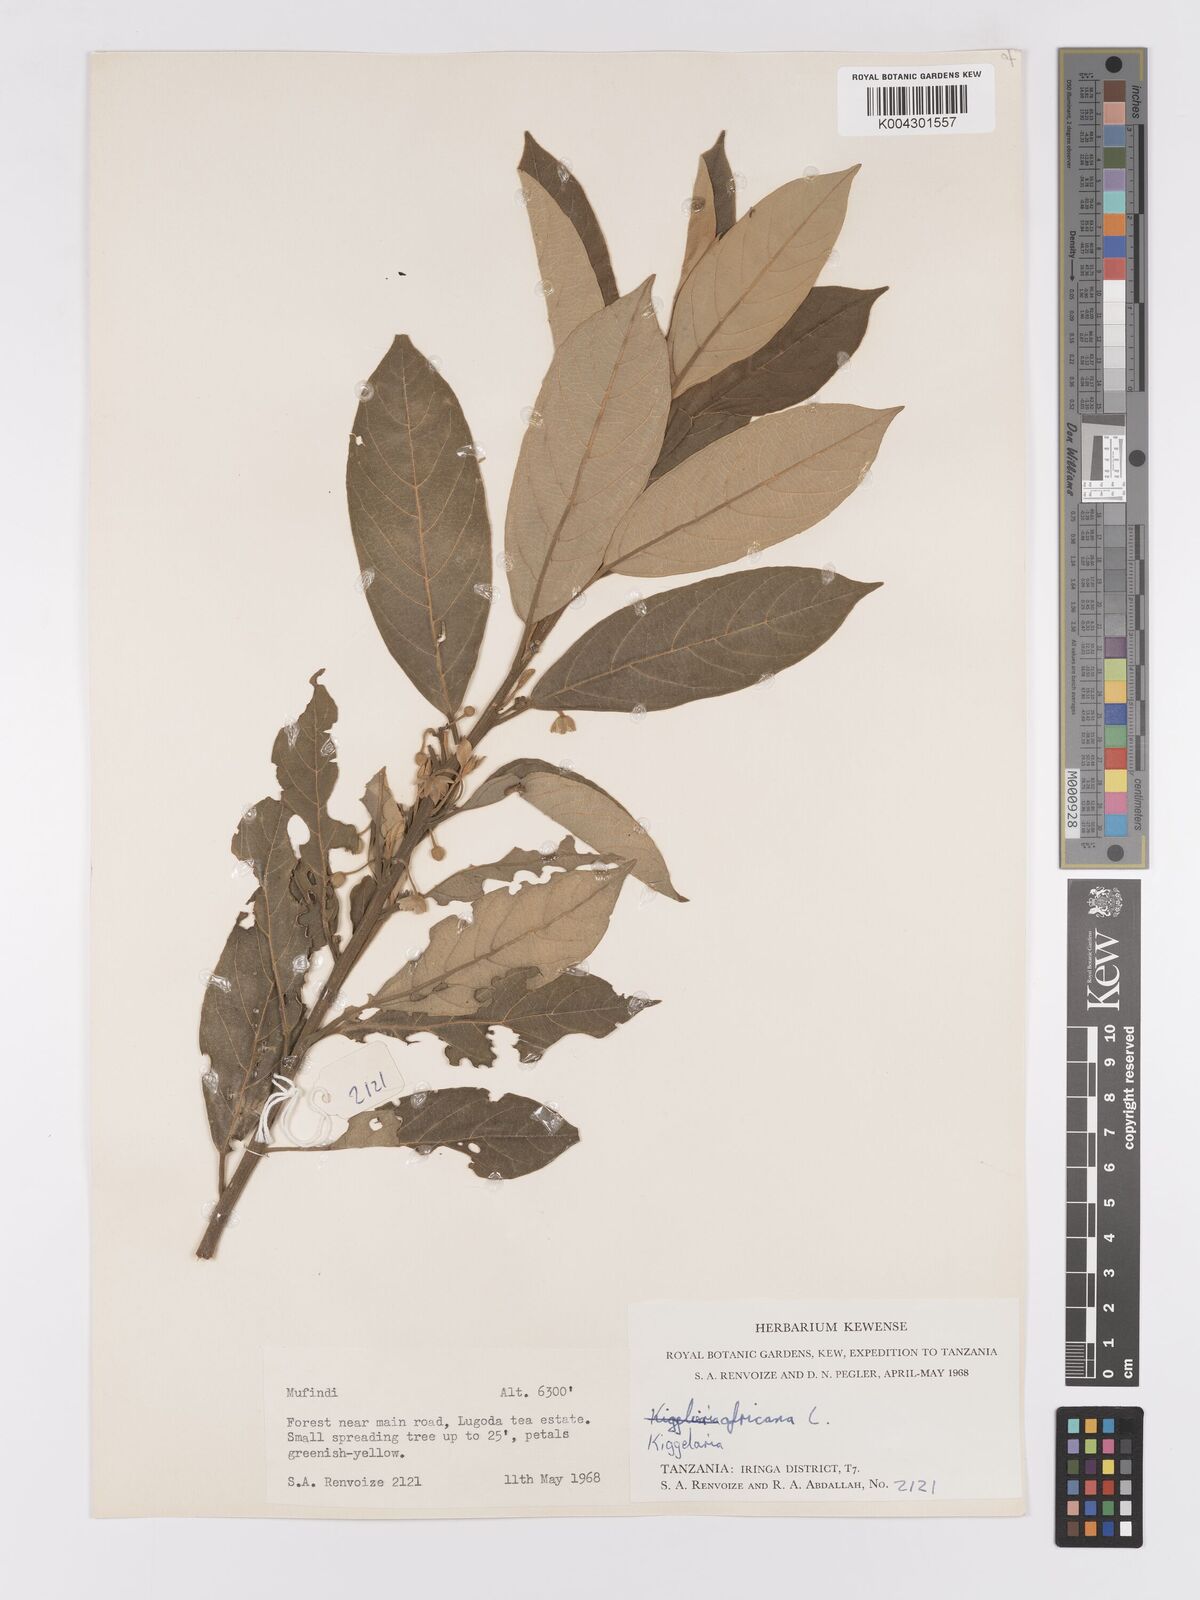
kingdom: Plantae
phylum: Tracheophyta
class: Magnoliopsida
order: Malpighiales
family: Achariaceae
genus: Kiggelaria
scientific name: Kiggelaria africana
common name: Wild peach
